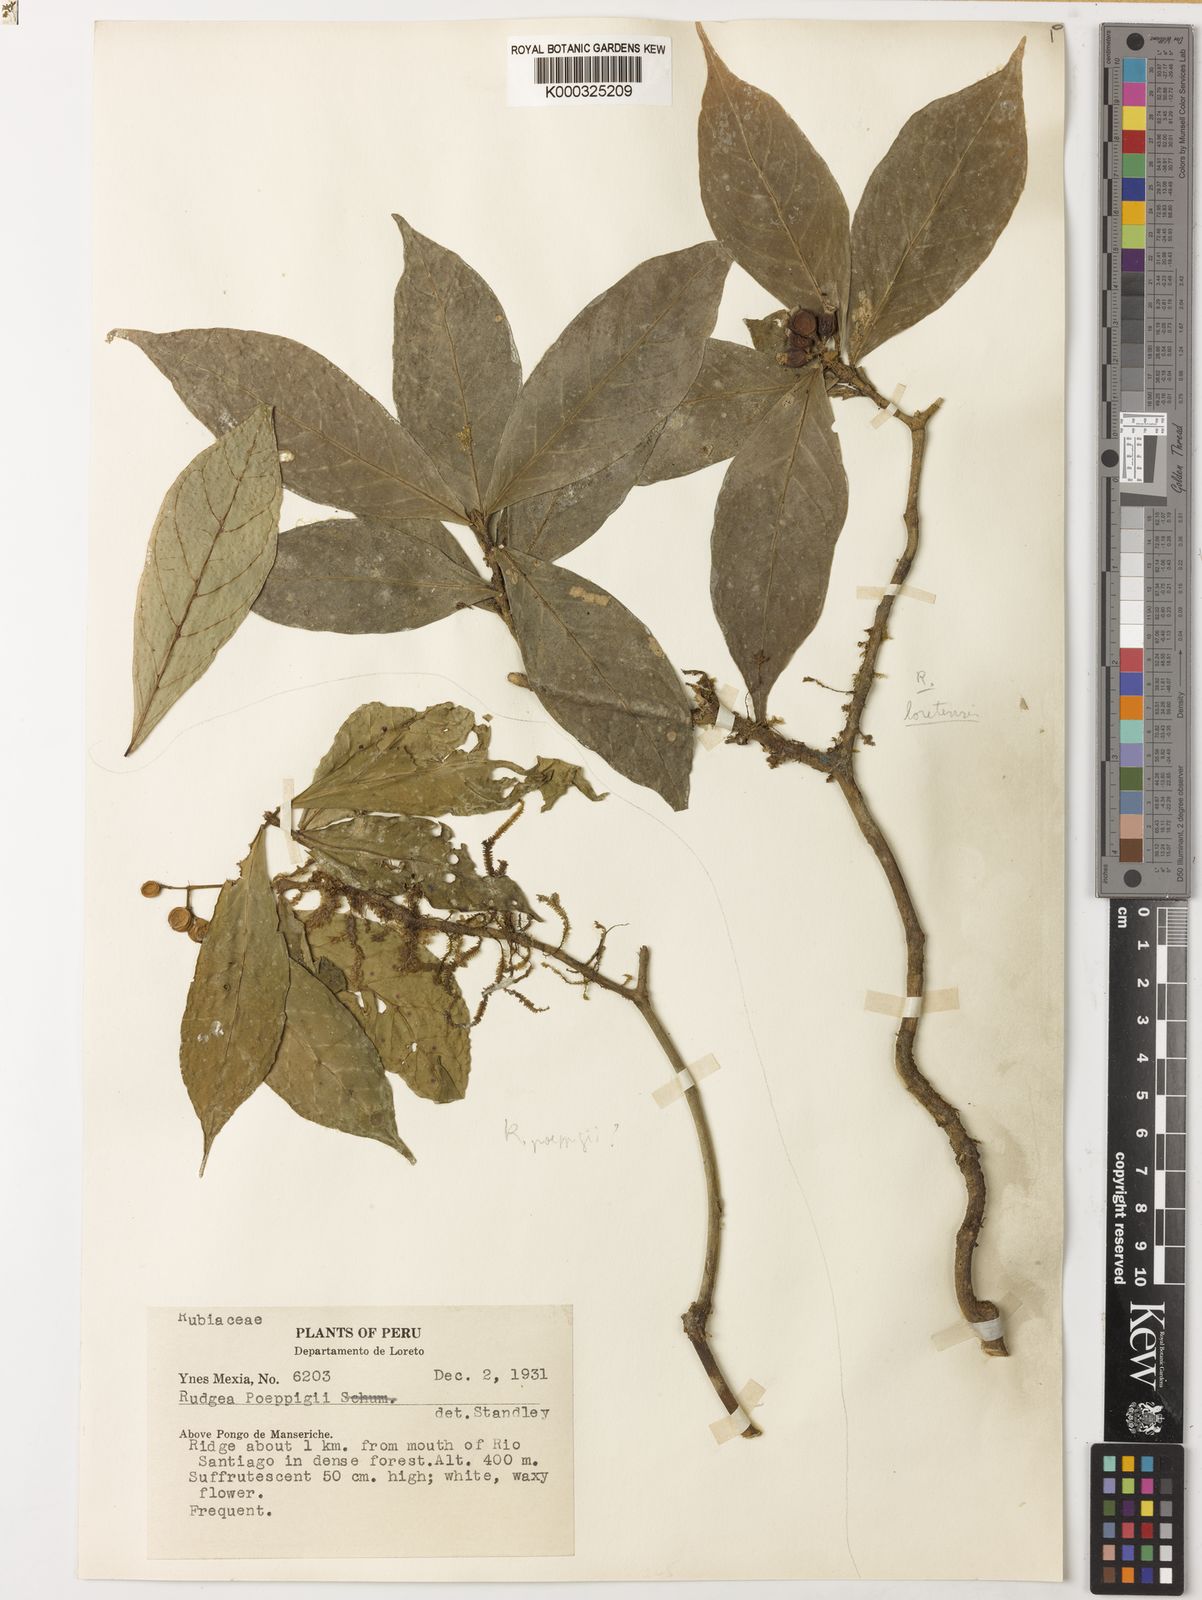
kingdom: Plantae
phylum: Tracheophyta
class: Magnoliopsida
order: Gentianales
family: Rubiaceae
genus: Rudgea
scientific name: Rudgea poeppigii
